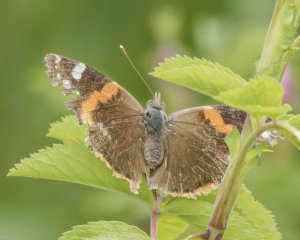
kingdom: Animalia
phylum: Arthropoda
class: Insecta
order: Lepidoptera
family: Nymphalidae
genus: Vanessa
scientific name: Vanessa atalanta
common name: Red Admiral
